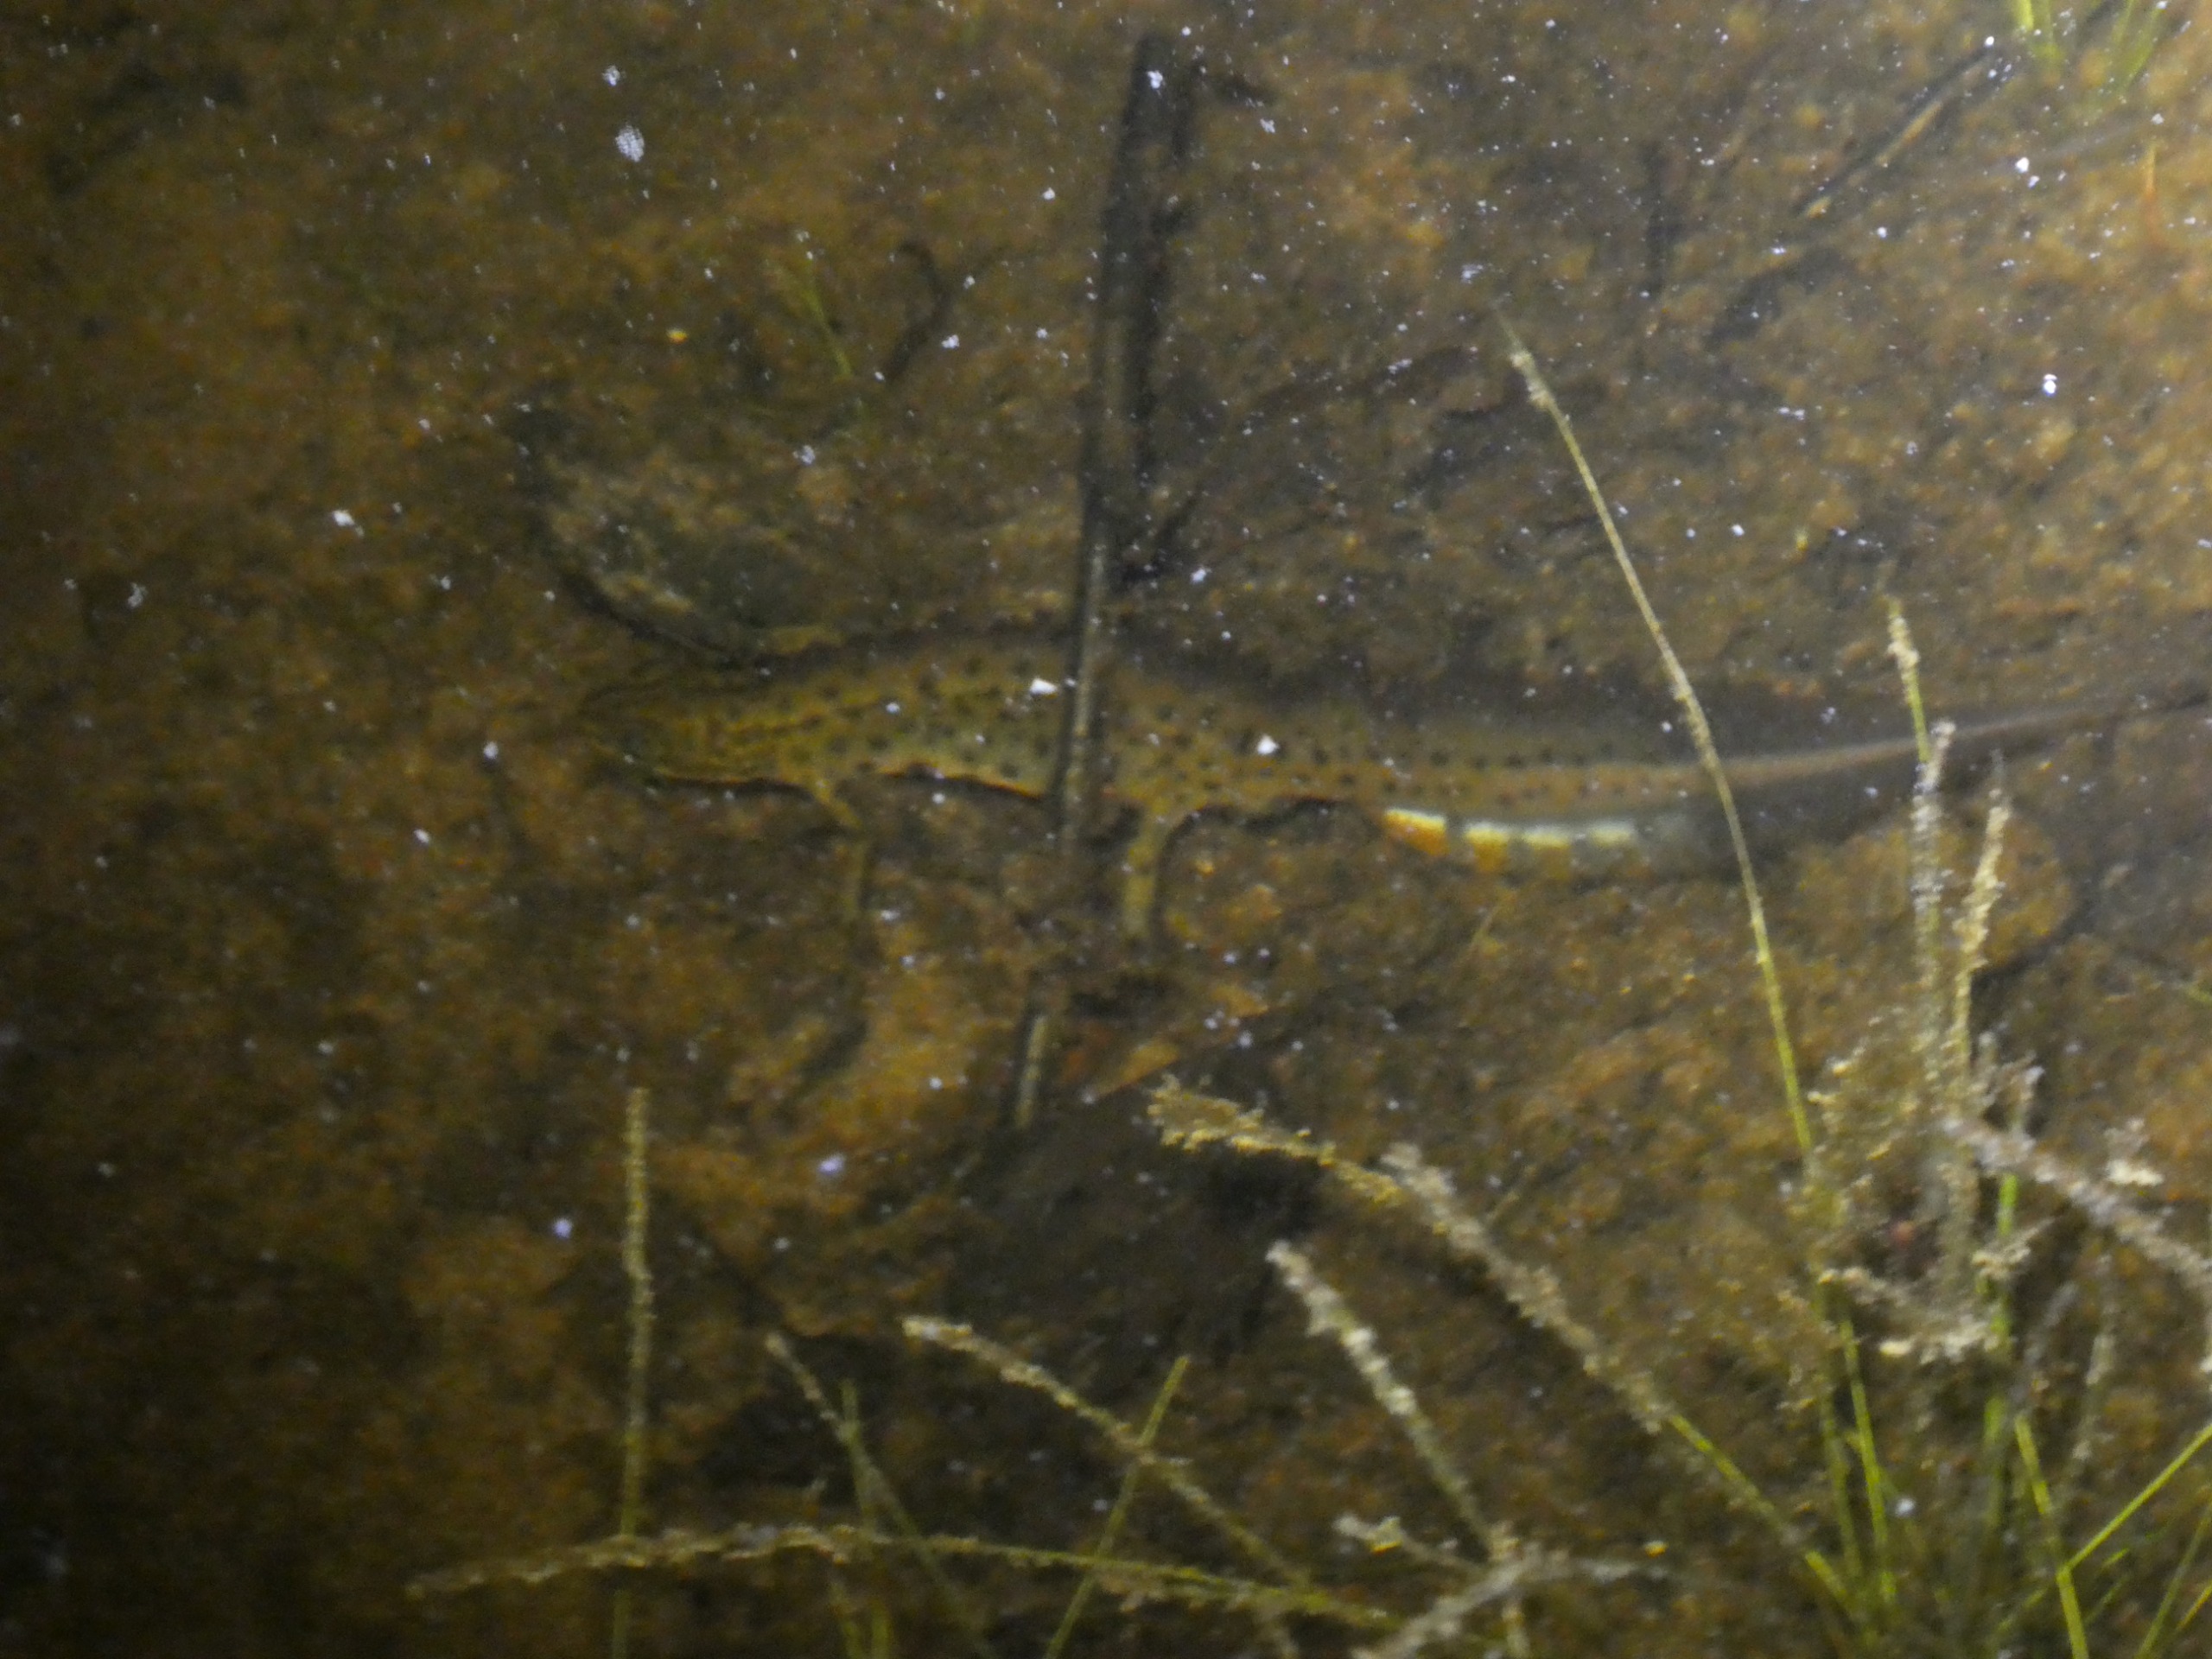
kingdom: Animalia
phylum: Chordata
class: Amphibia
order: Caudata
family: Salamandridae
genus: Lissotriton
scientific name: Lissotriton vulgaris
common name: Lille vandsalamander
